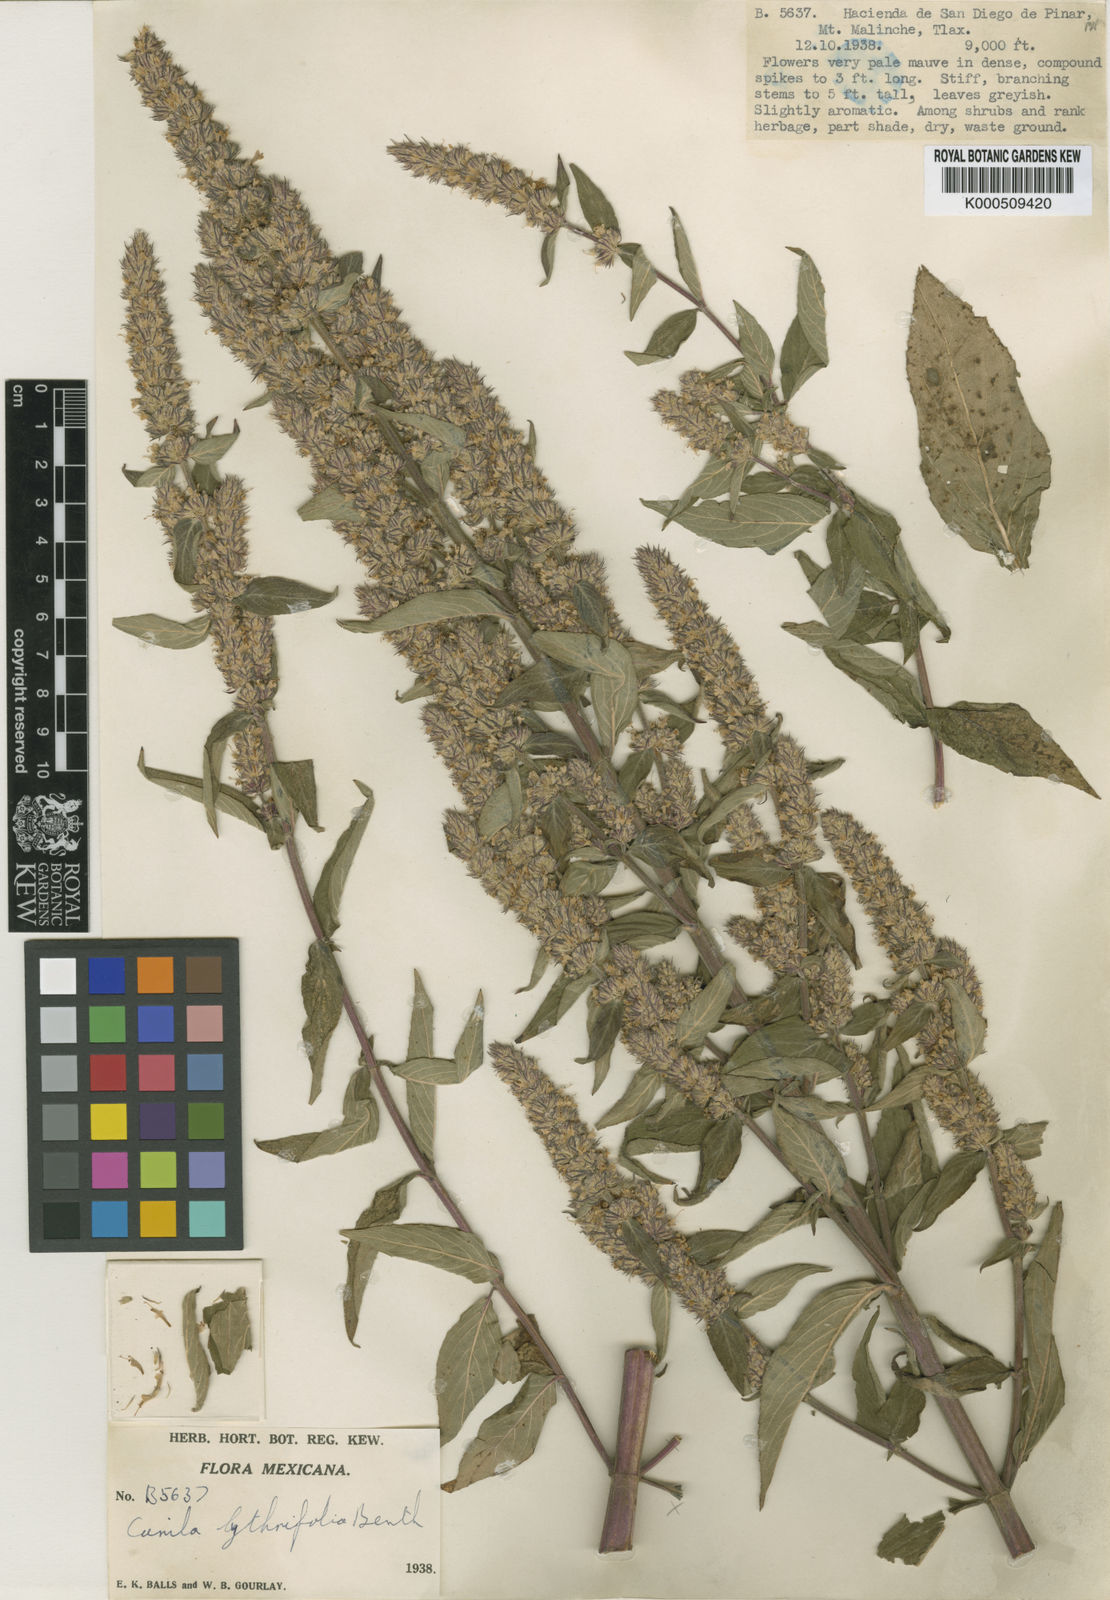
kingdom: Plantae
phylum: Tracheophyta
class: Magnoliopsida
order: Lamiales
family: Lamiaceae
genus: Cunila
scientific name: Cunila lythrifolia
